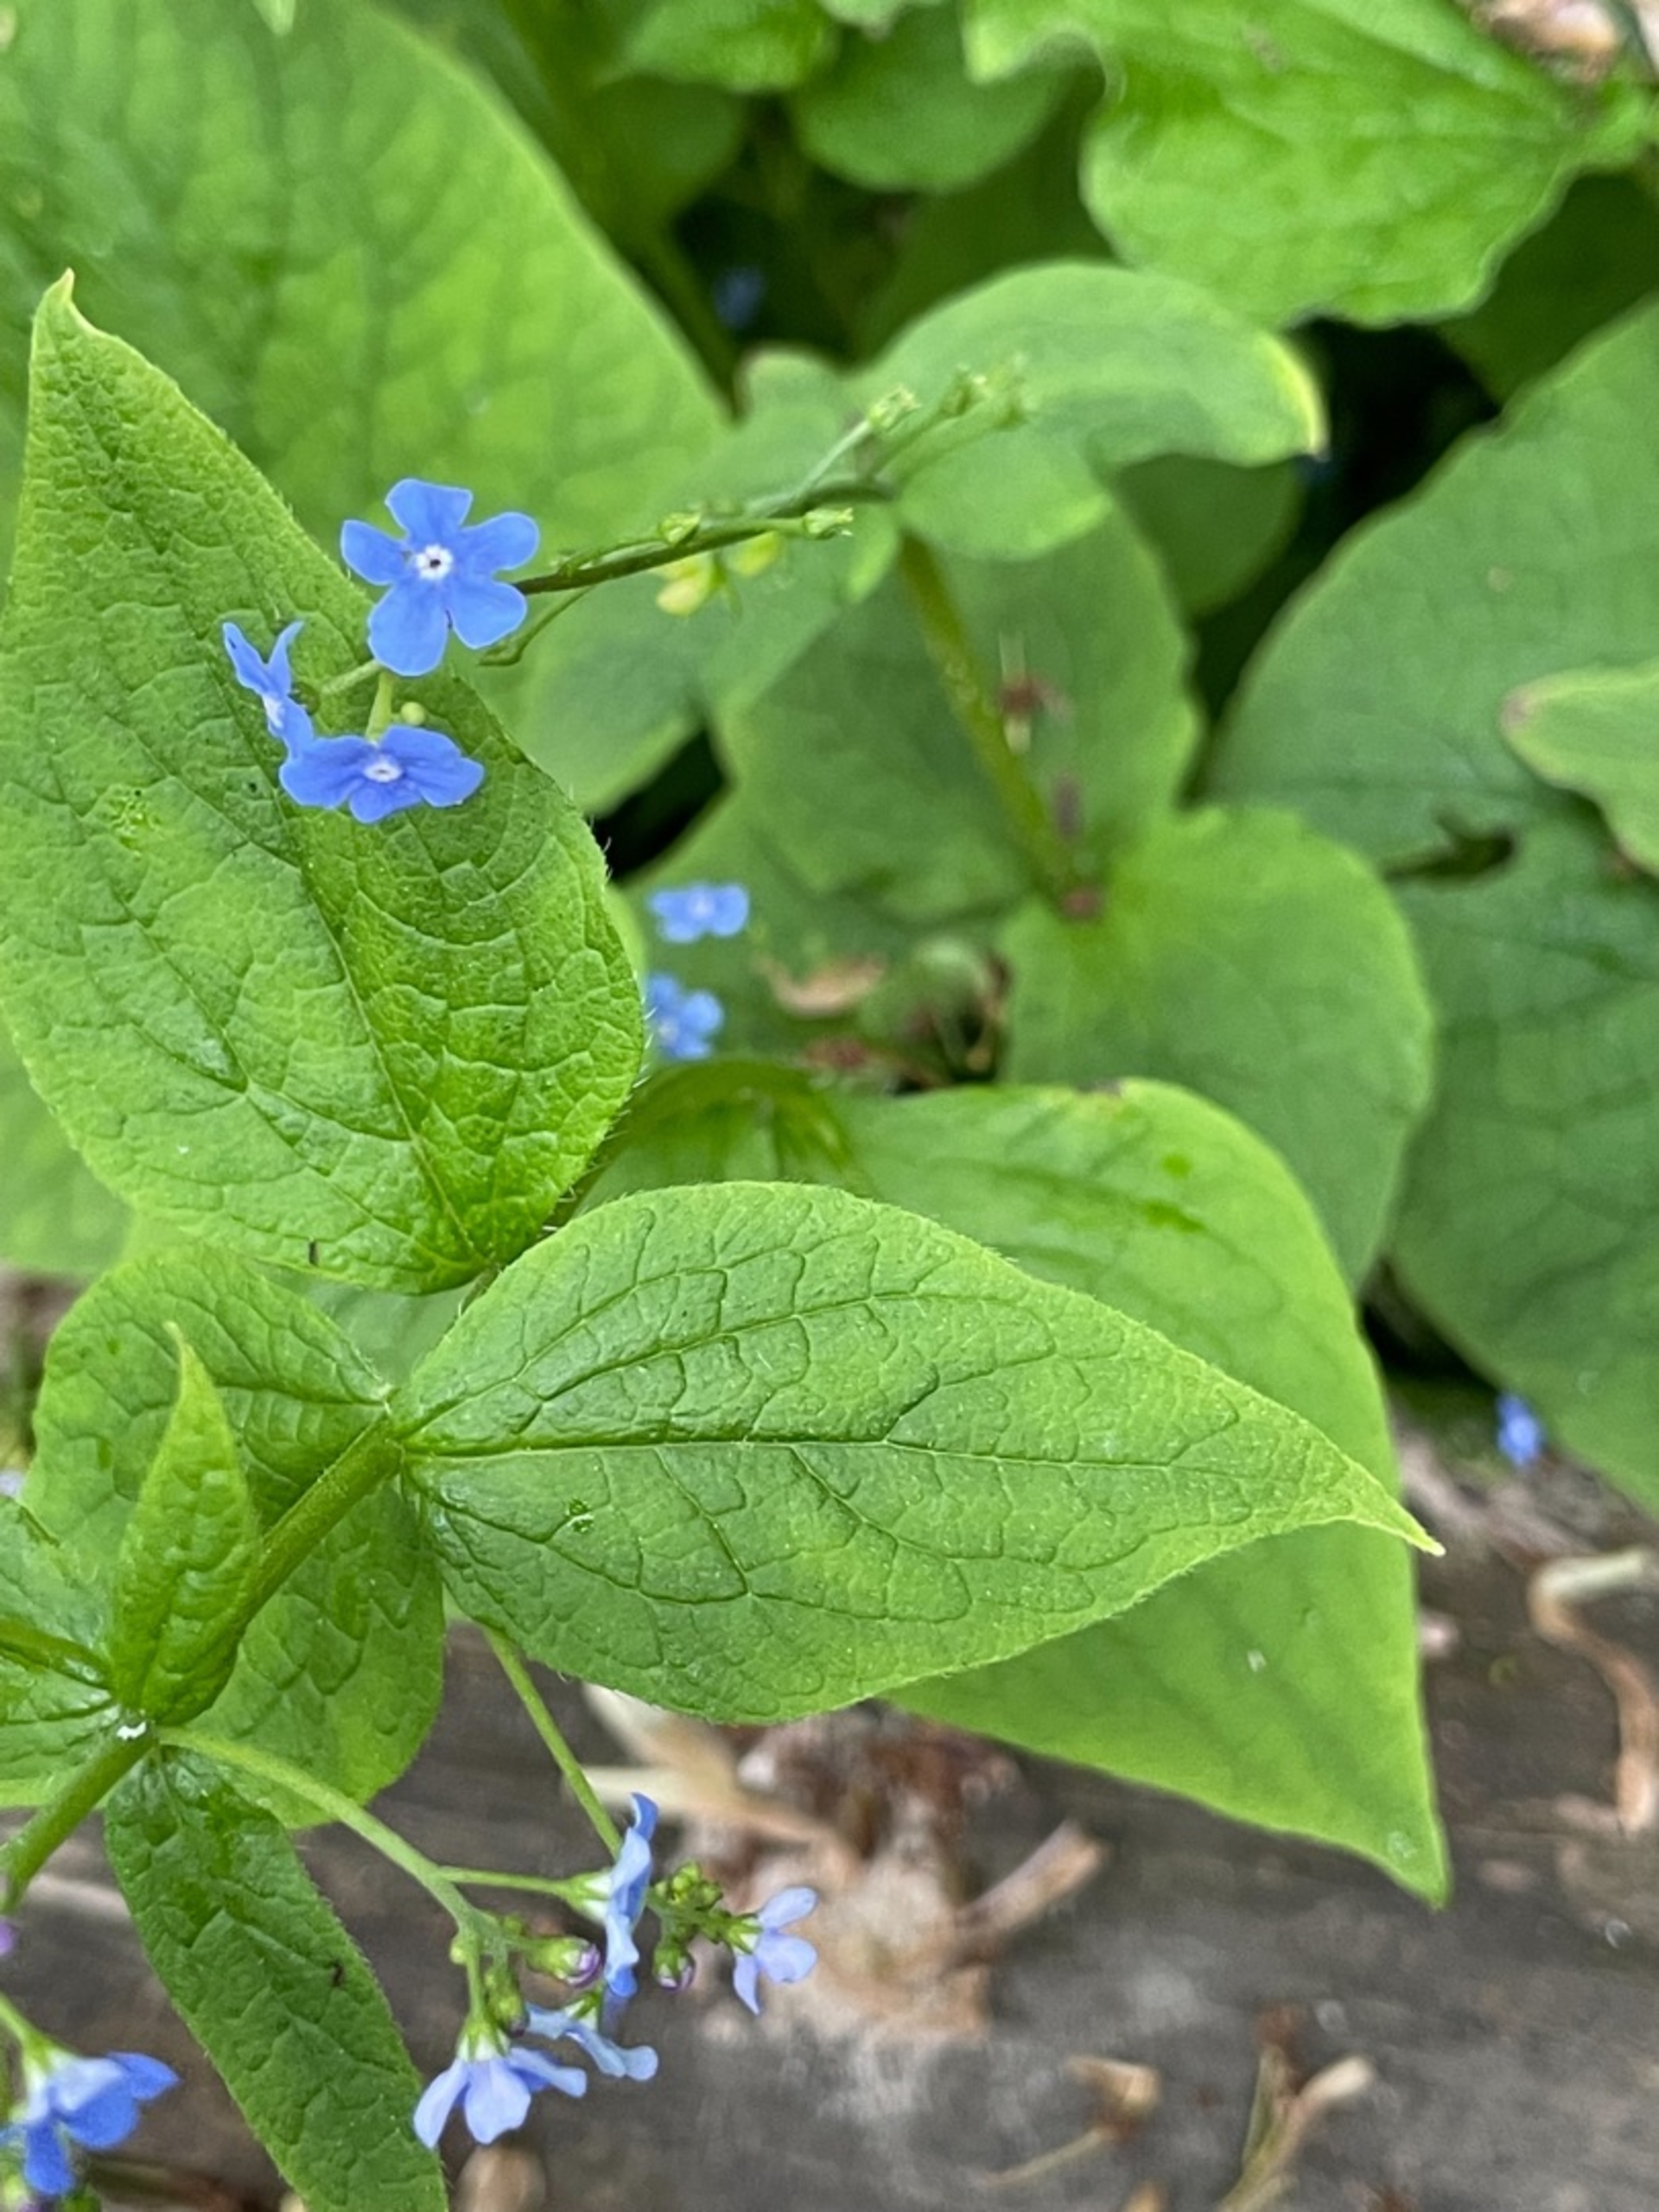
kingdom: Plantae
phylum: Tracheophyta
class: Magnoliopsida
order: Boraginales
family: Boraginaceae
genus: Brunnera
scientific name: Brunnera macrophylla
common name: Kærmindesøster
